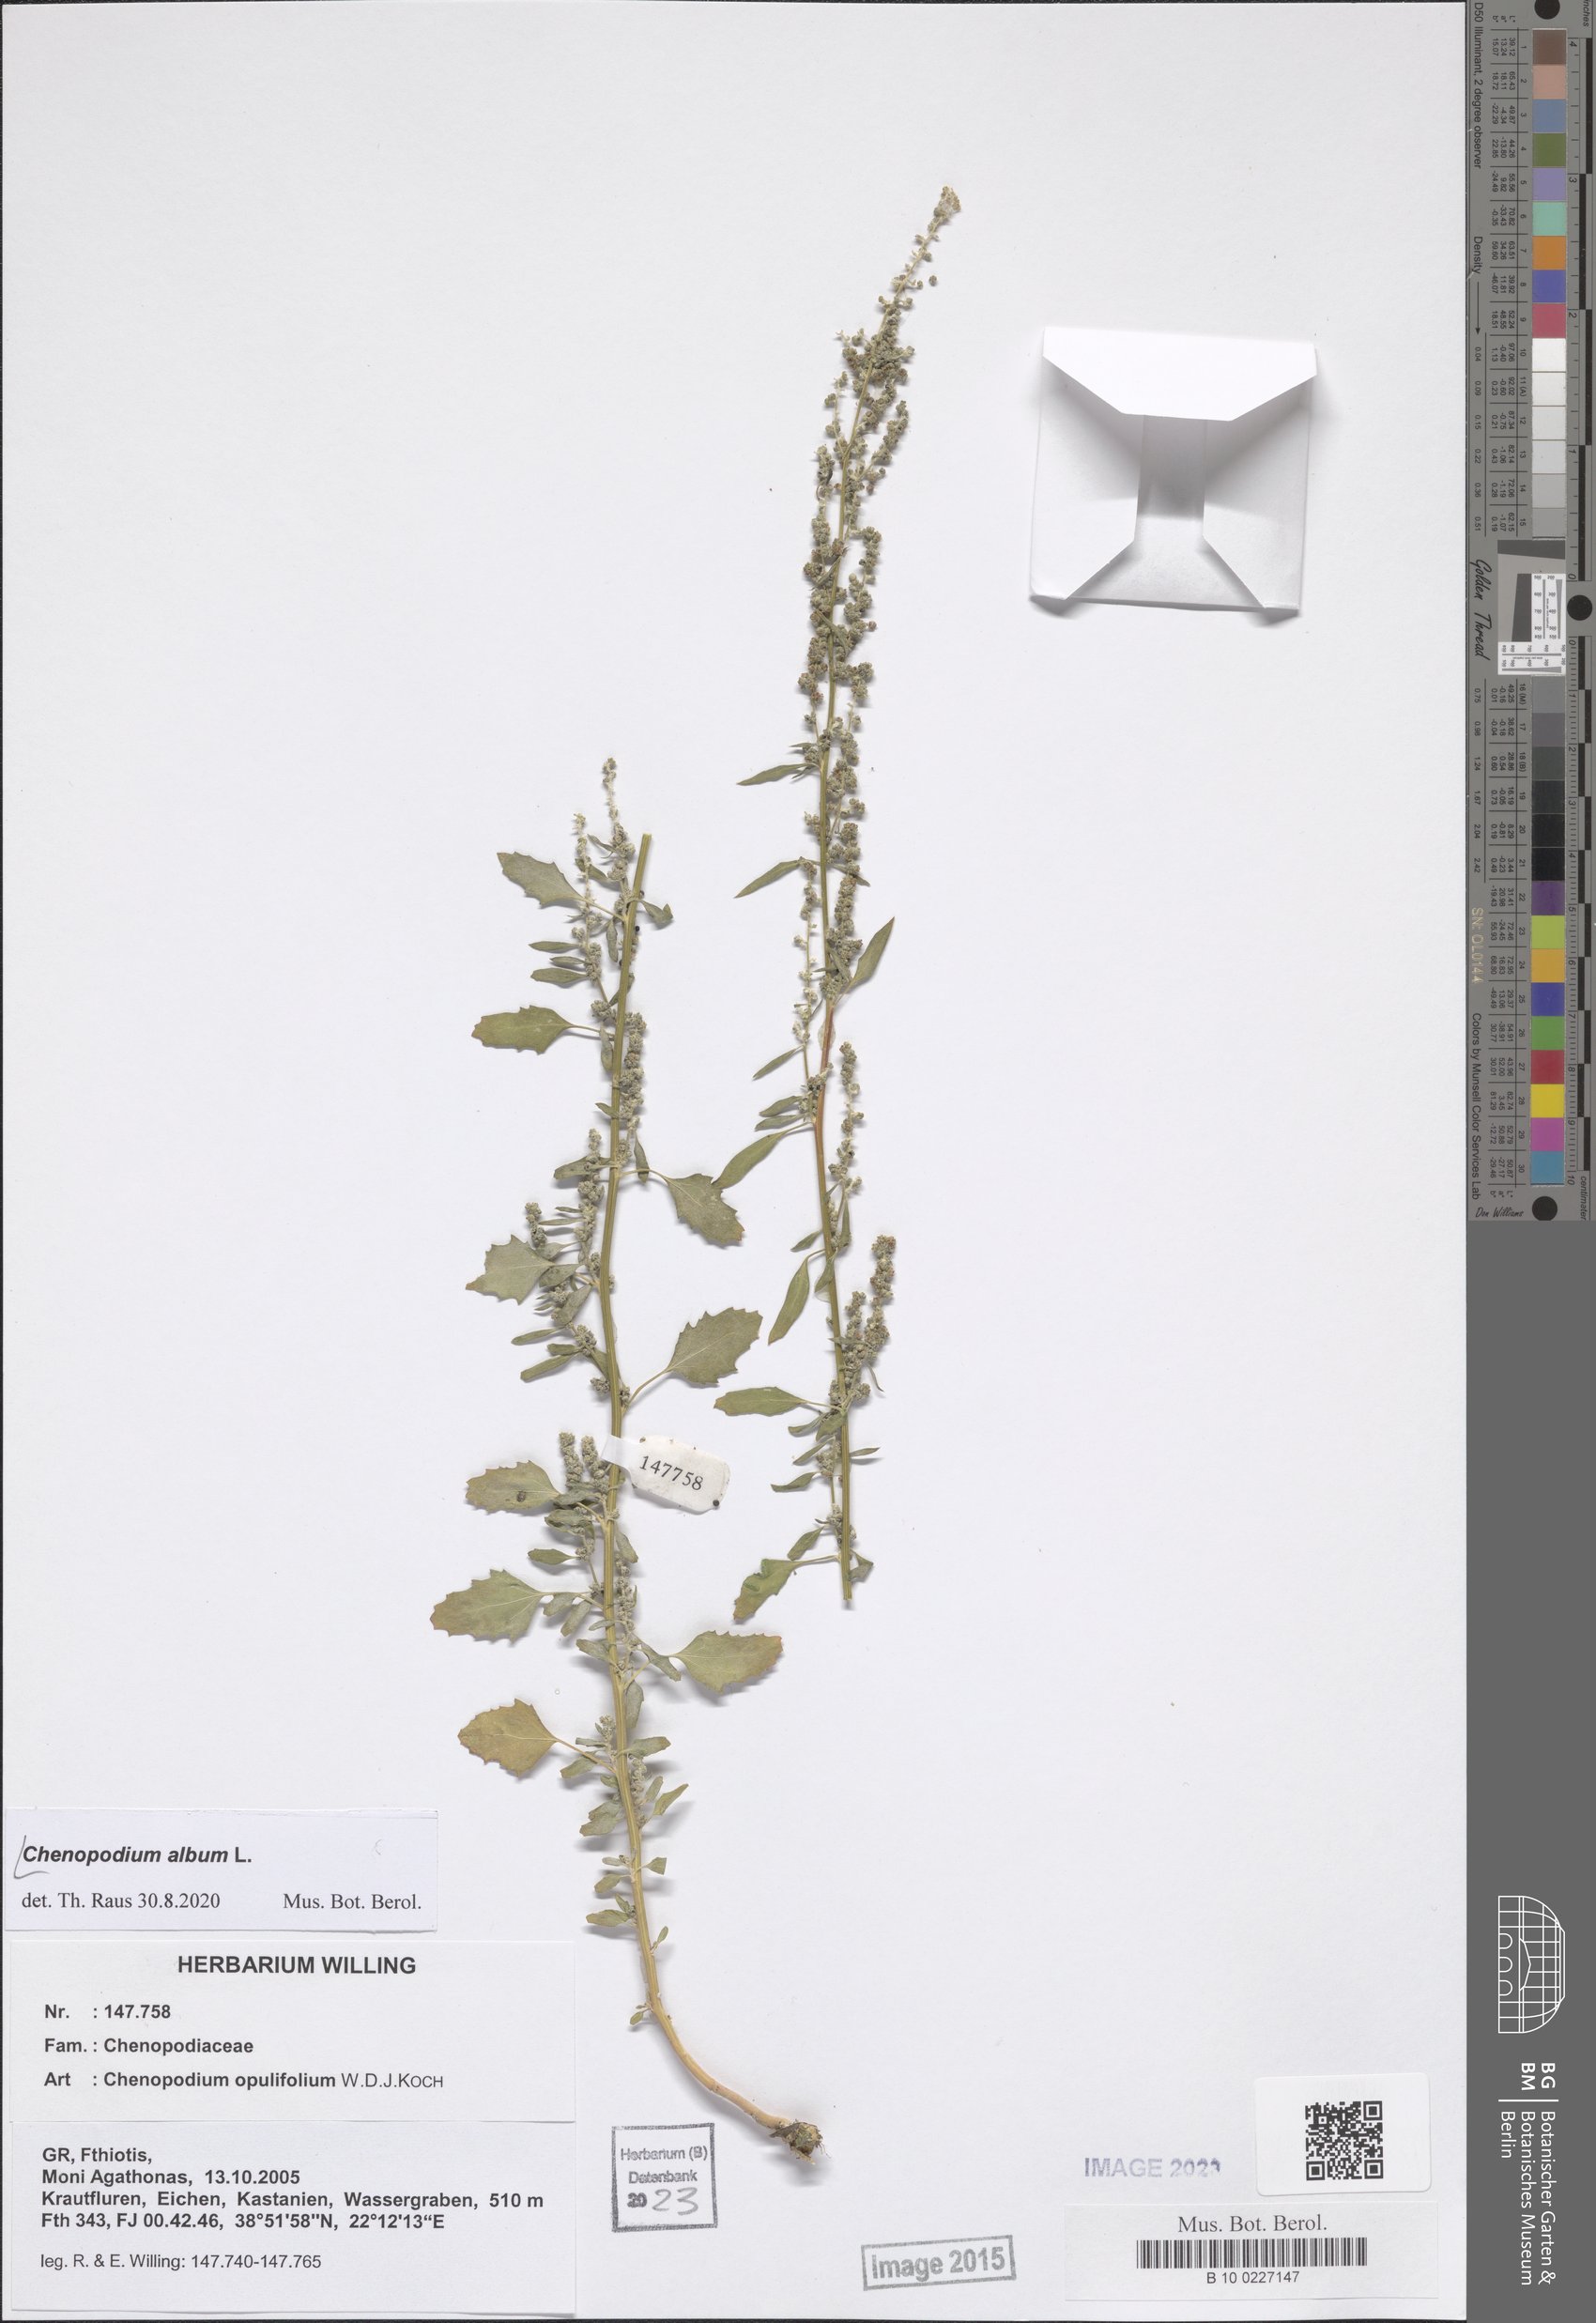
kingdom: Plantae
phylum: Tracheophyta
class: Magnoliopsida
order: Caryophyllales
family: Amaranthaceae
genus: Chenopodium
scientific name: Chenopodium album
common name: Fat-hen
